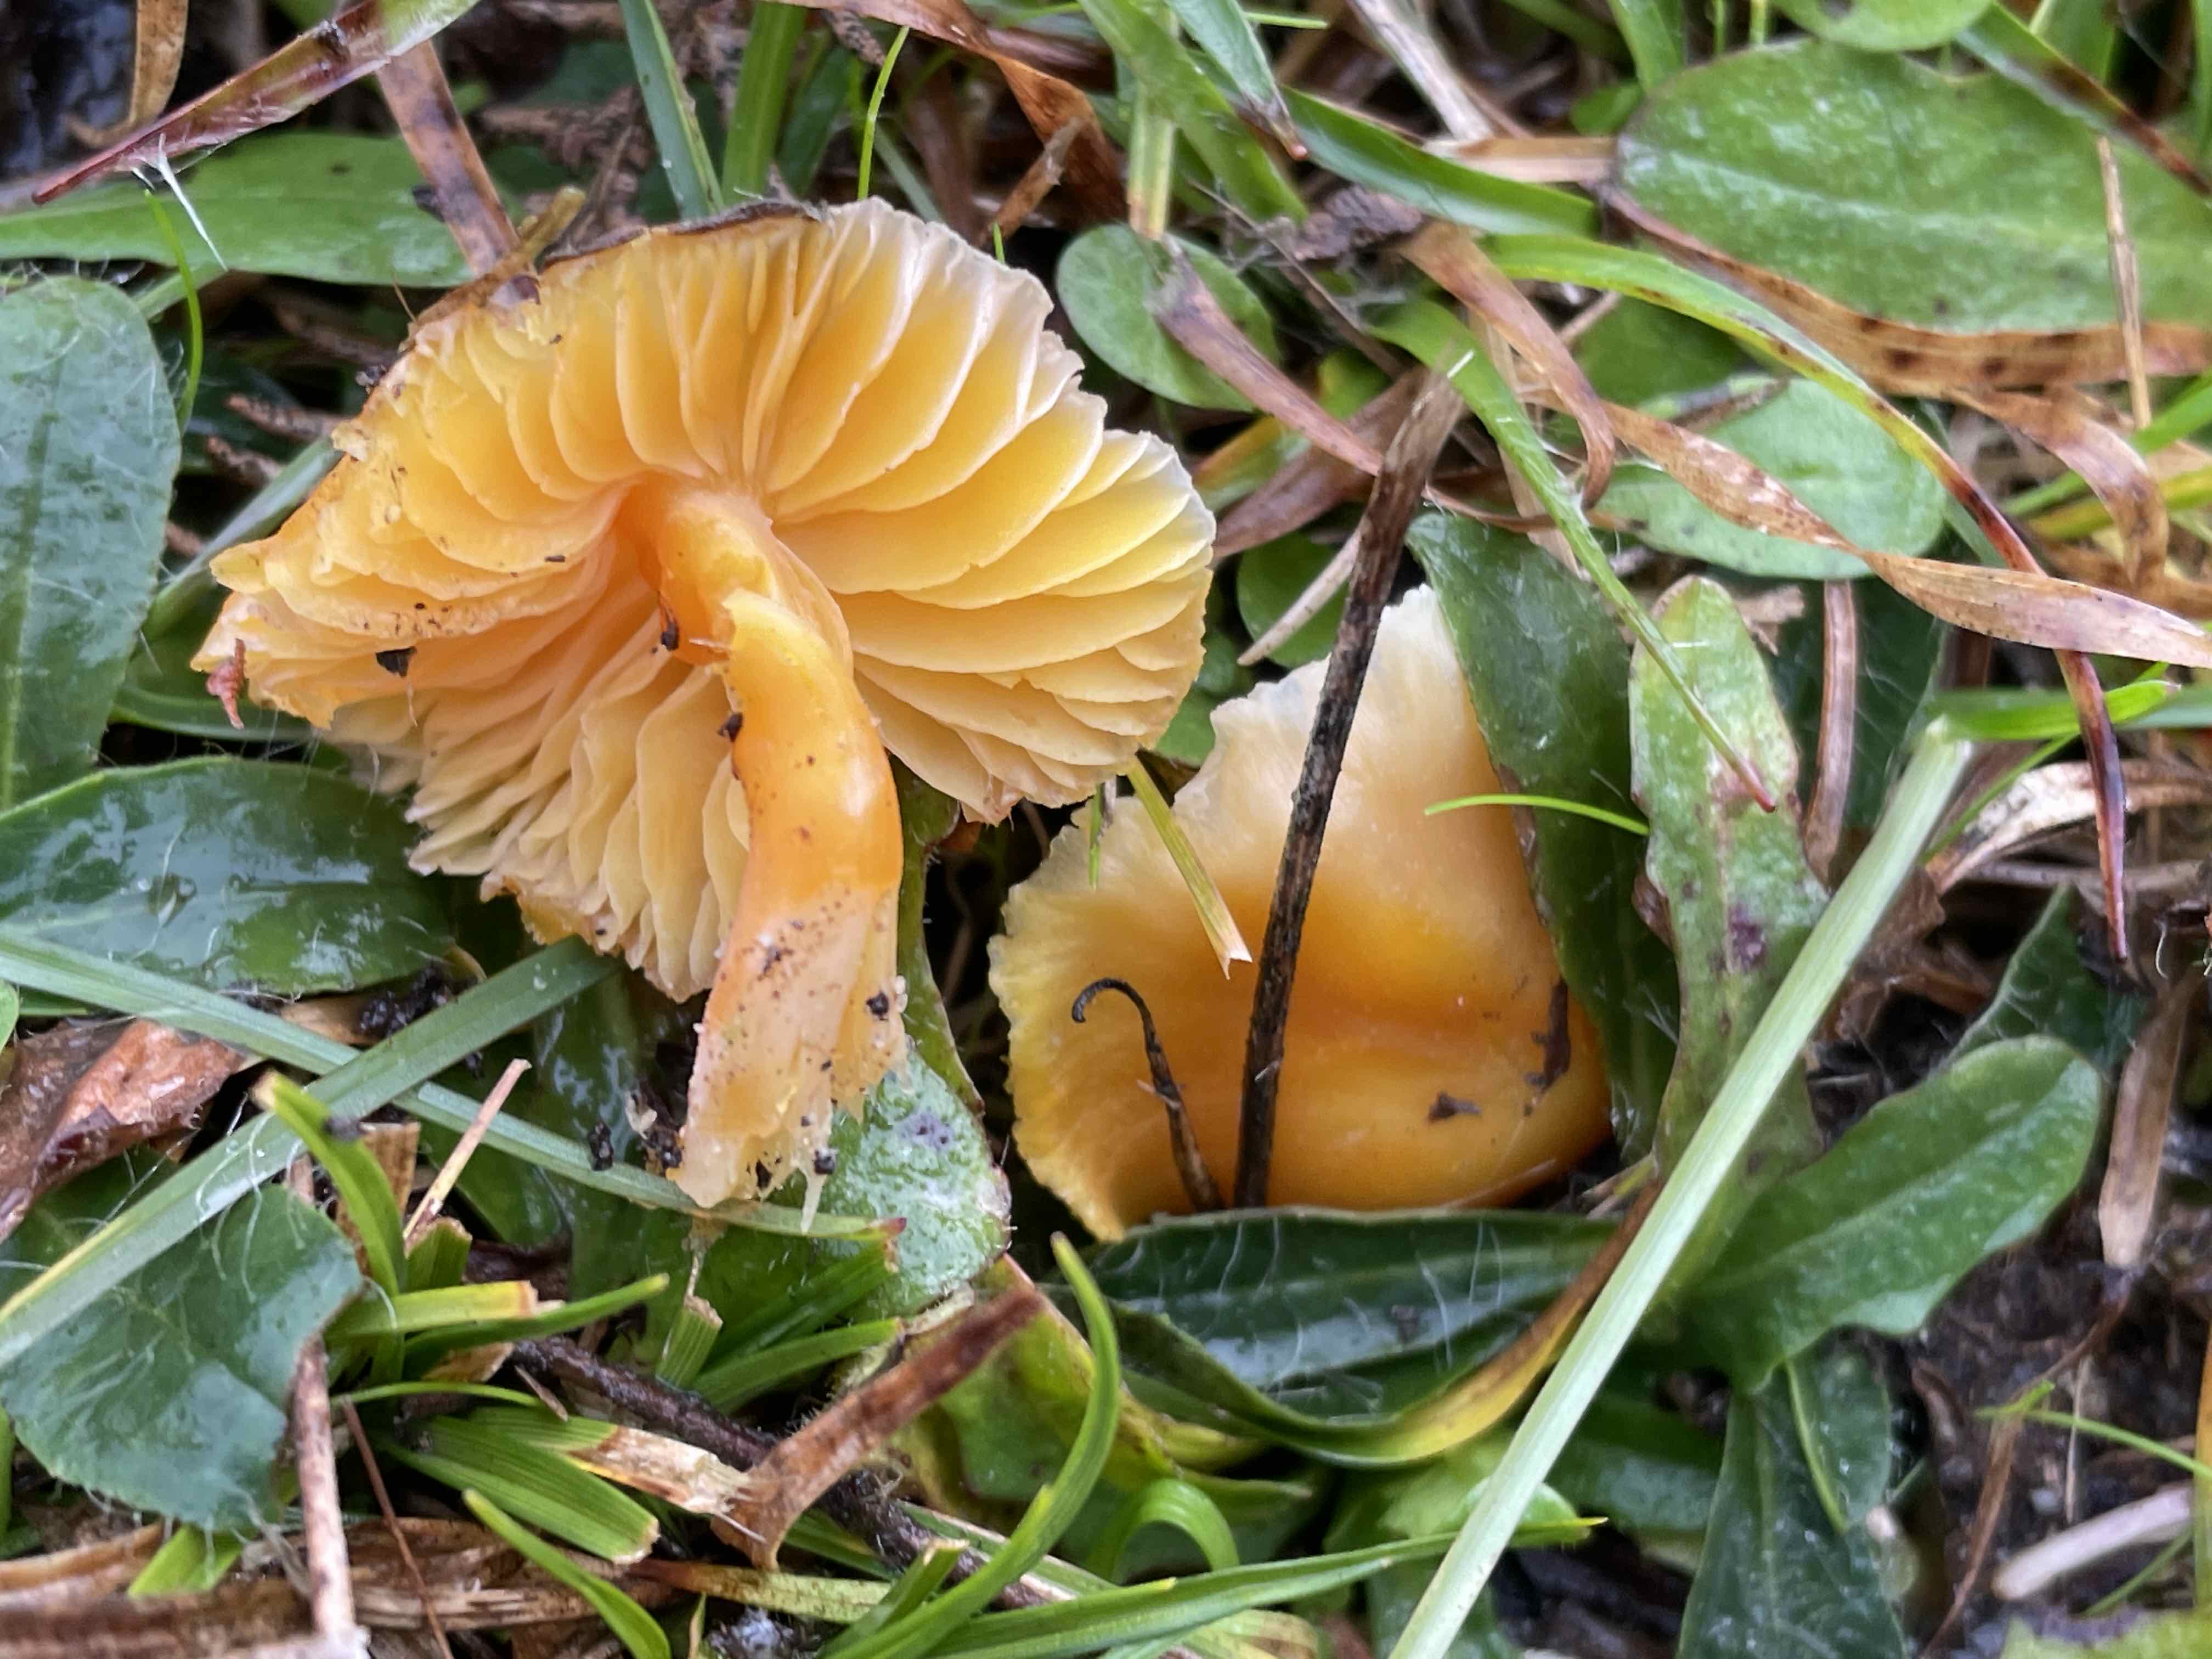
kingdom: Fungi
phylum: Basidiomycota
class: Agaricomycetes
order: Agaricales
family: Hygrophoraceae
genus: Hygrocybe
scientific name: Hygrocybe chlorophana
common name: gul vokshat
